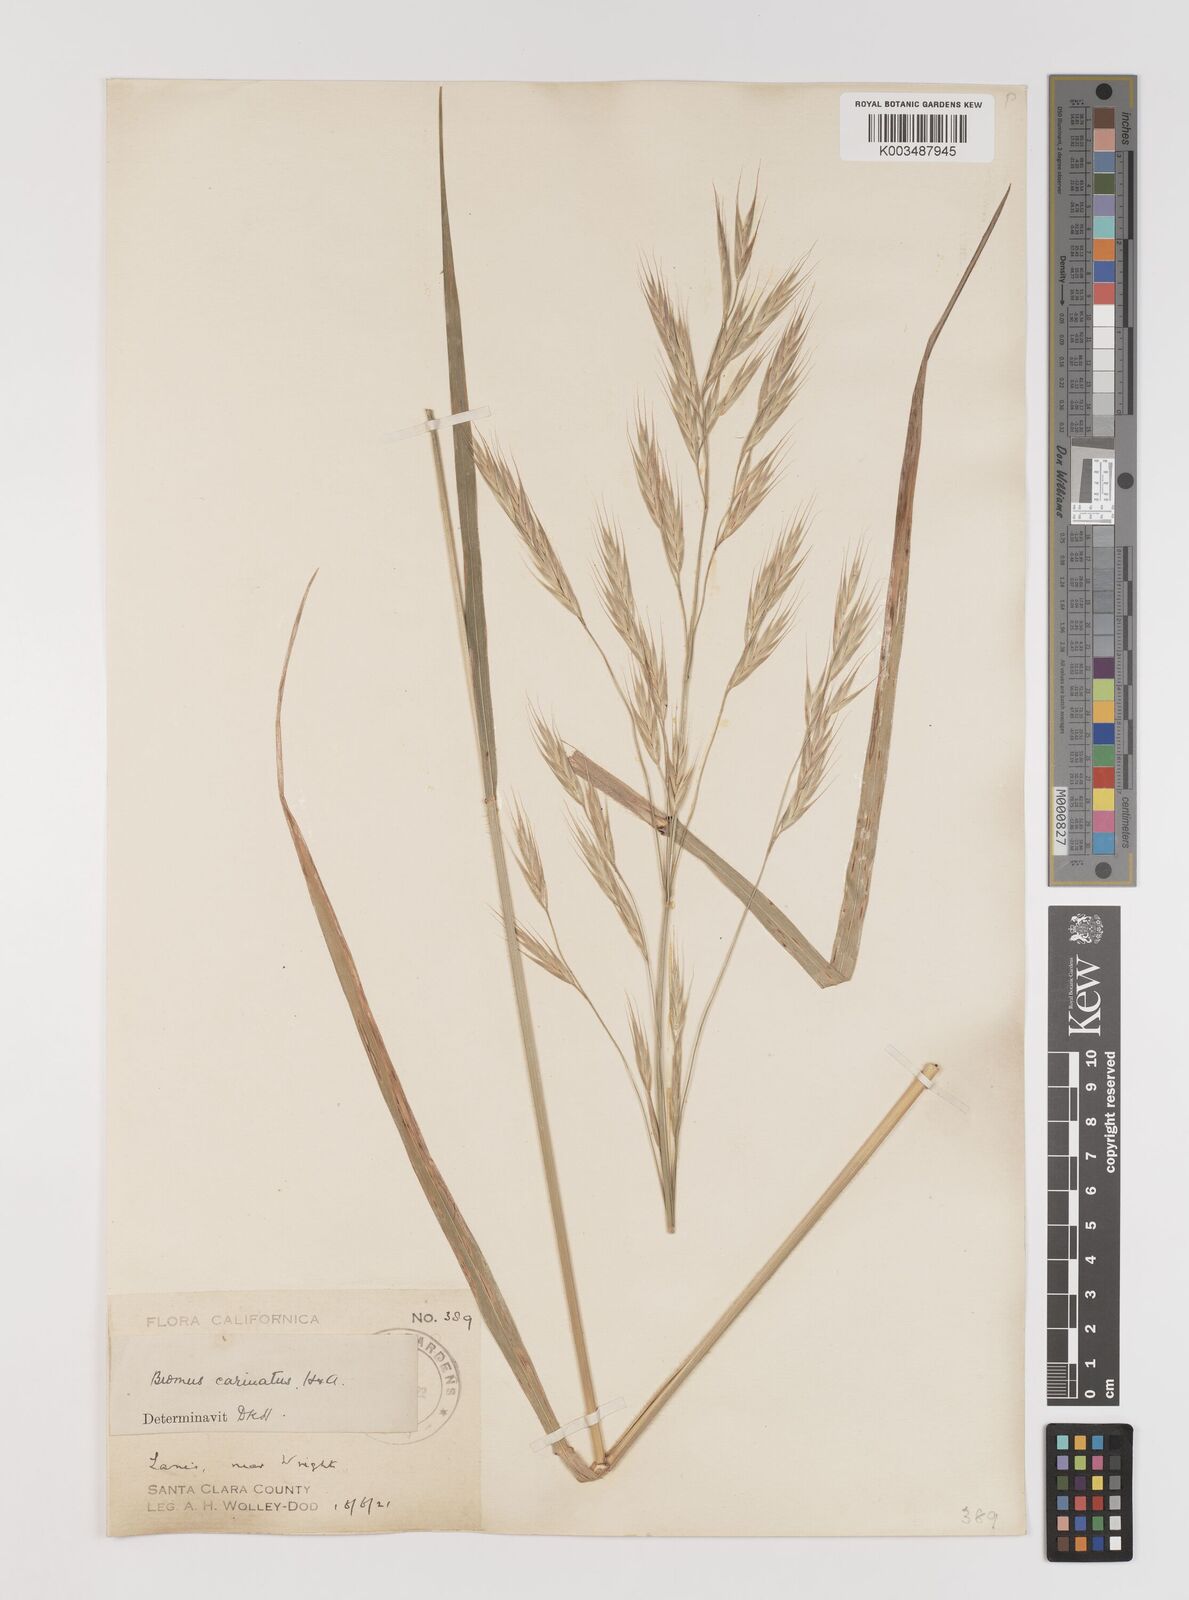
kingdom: Plantae
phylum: Tracheophyta
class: Liliopsida
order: Poales
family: Poaceae
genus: Bromus
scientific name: Bromus carinatus
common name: Mountain brome
